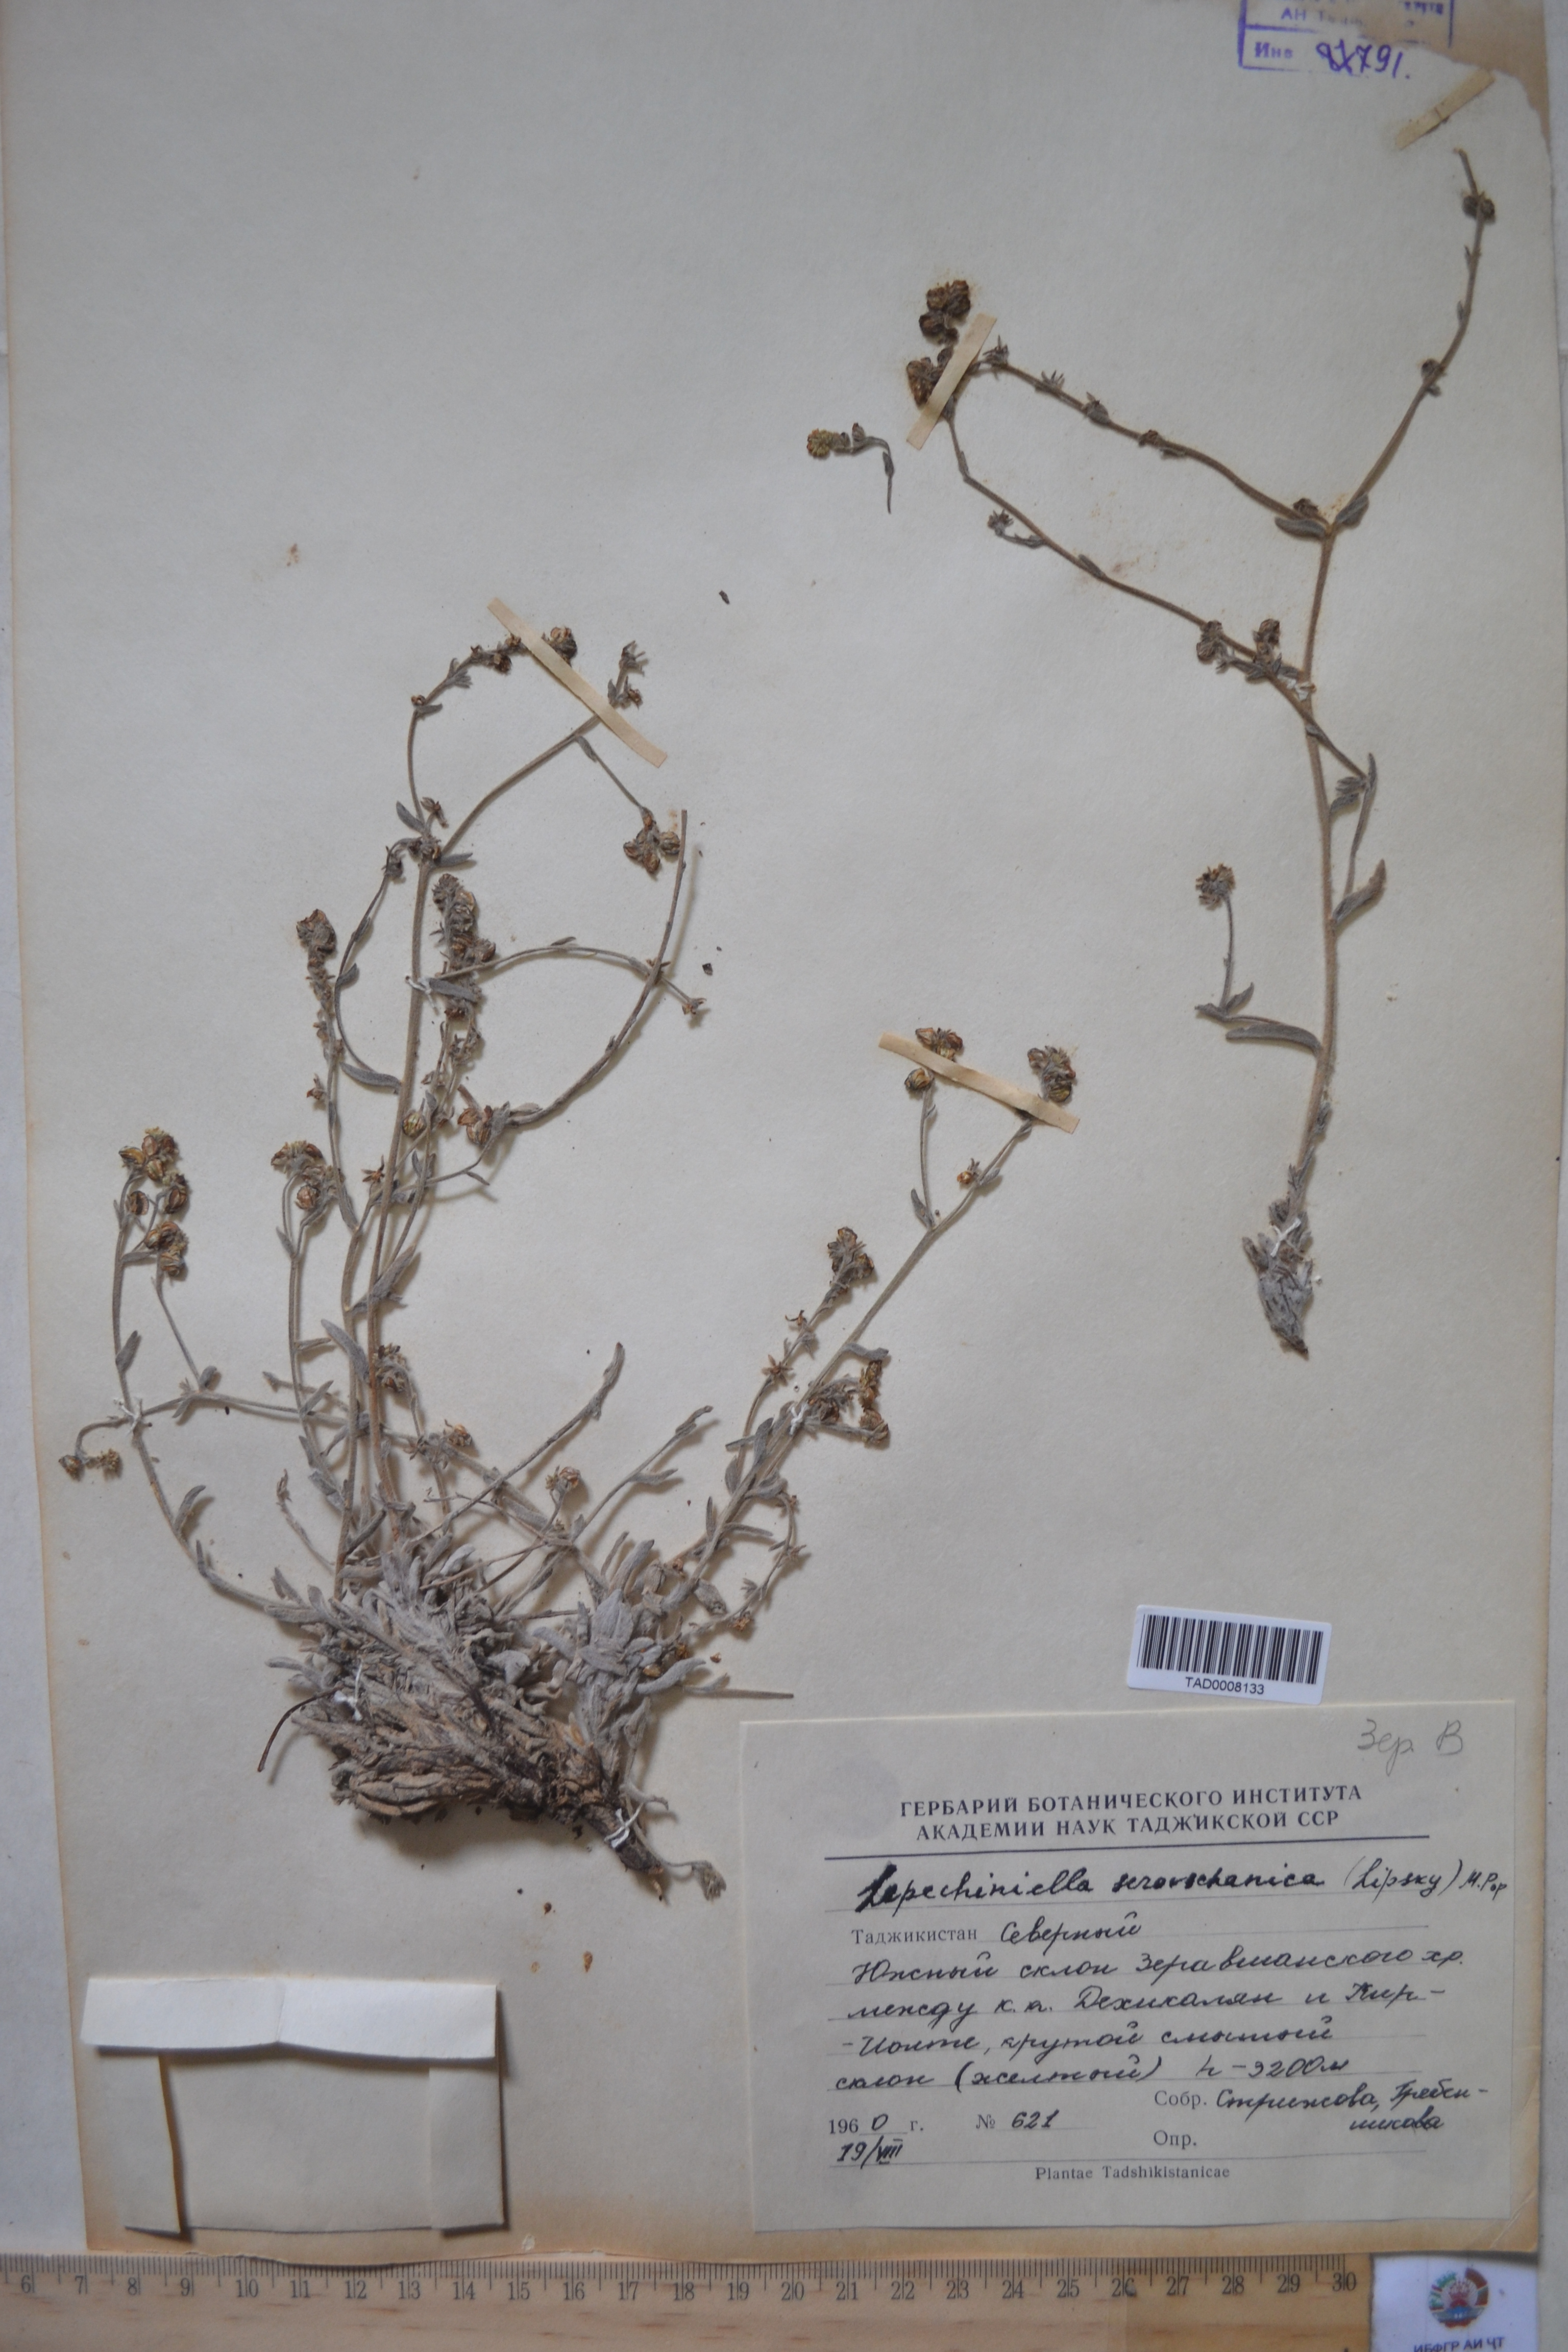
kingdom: Plantae
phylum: Tracheophyta
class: Magnoliopsida
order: Boraginales
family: Boraginaceae
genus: Lepechiniella
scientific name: Lepechiniella seravschanica
